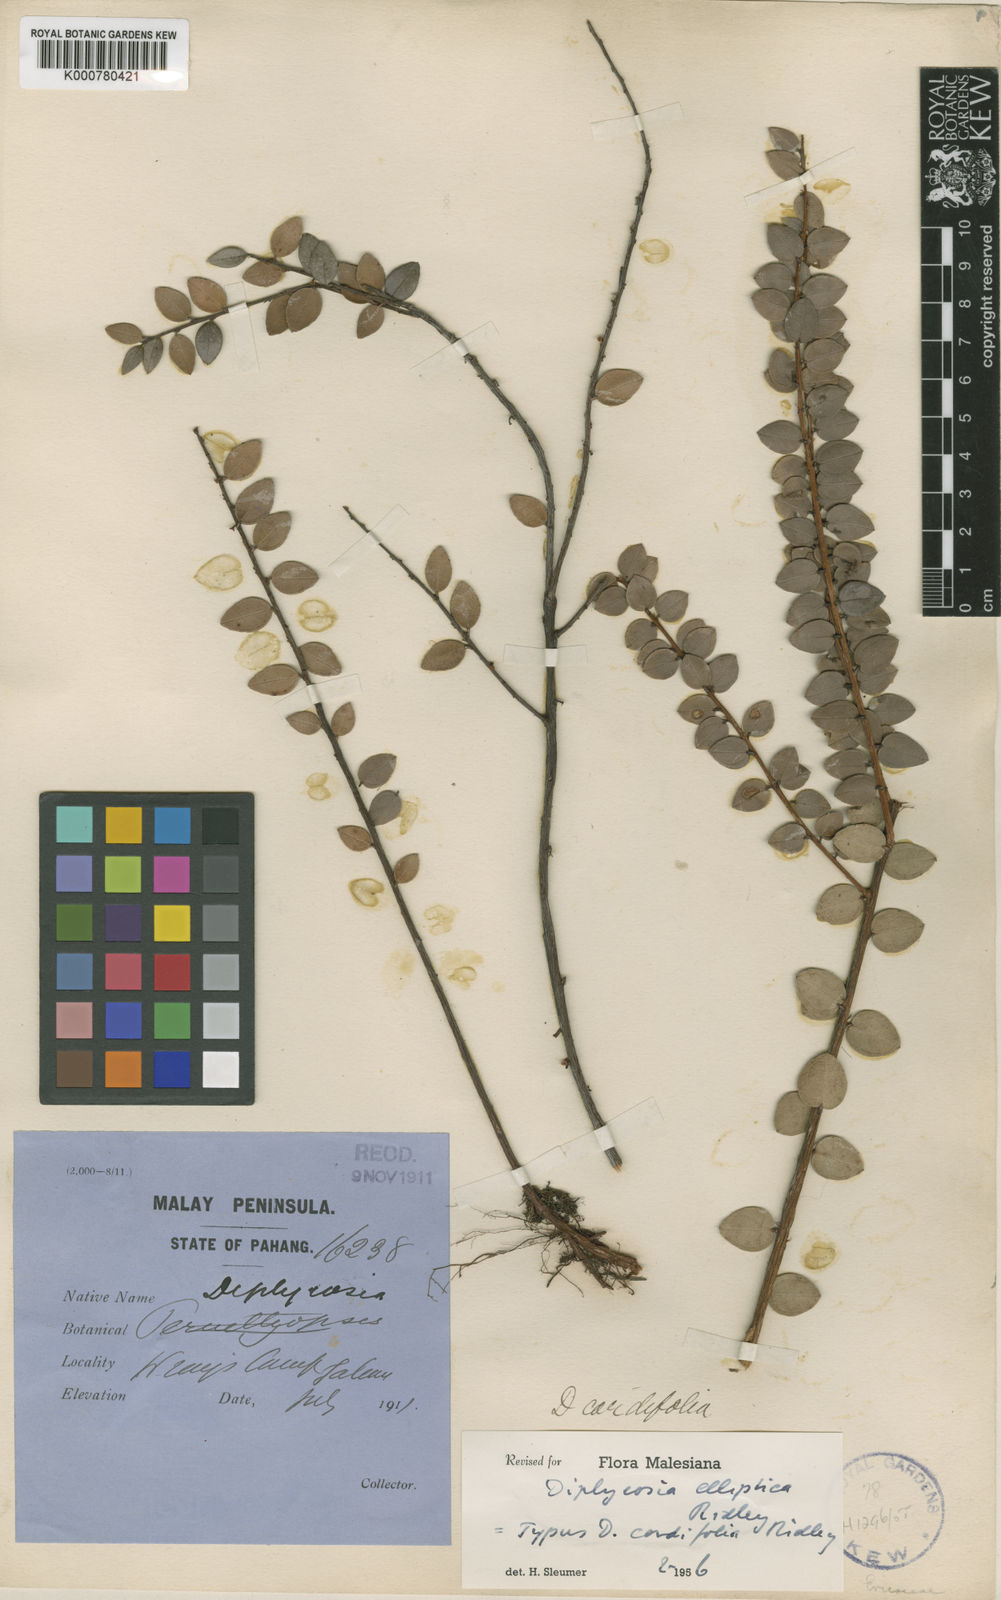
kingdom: Plantae
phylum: Tracheophyta
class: Magnoliopsida
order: Ericales
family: Ericaceae
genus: Gaultheria
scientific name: Gaultheria kingii
